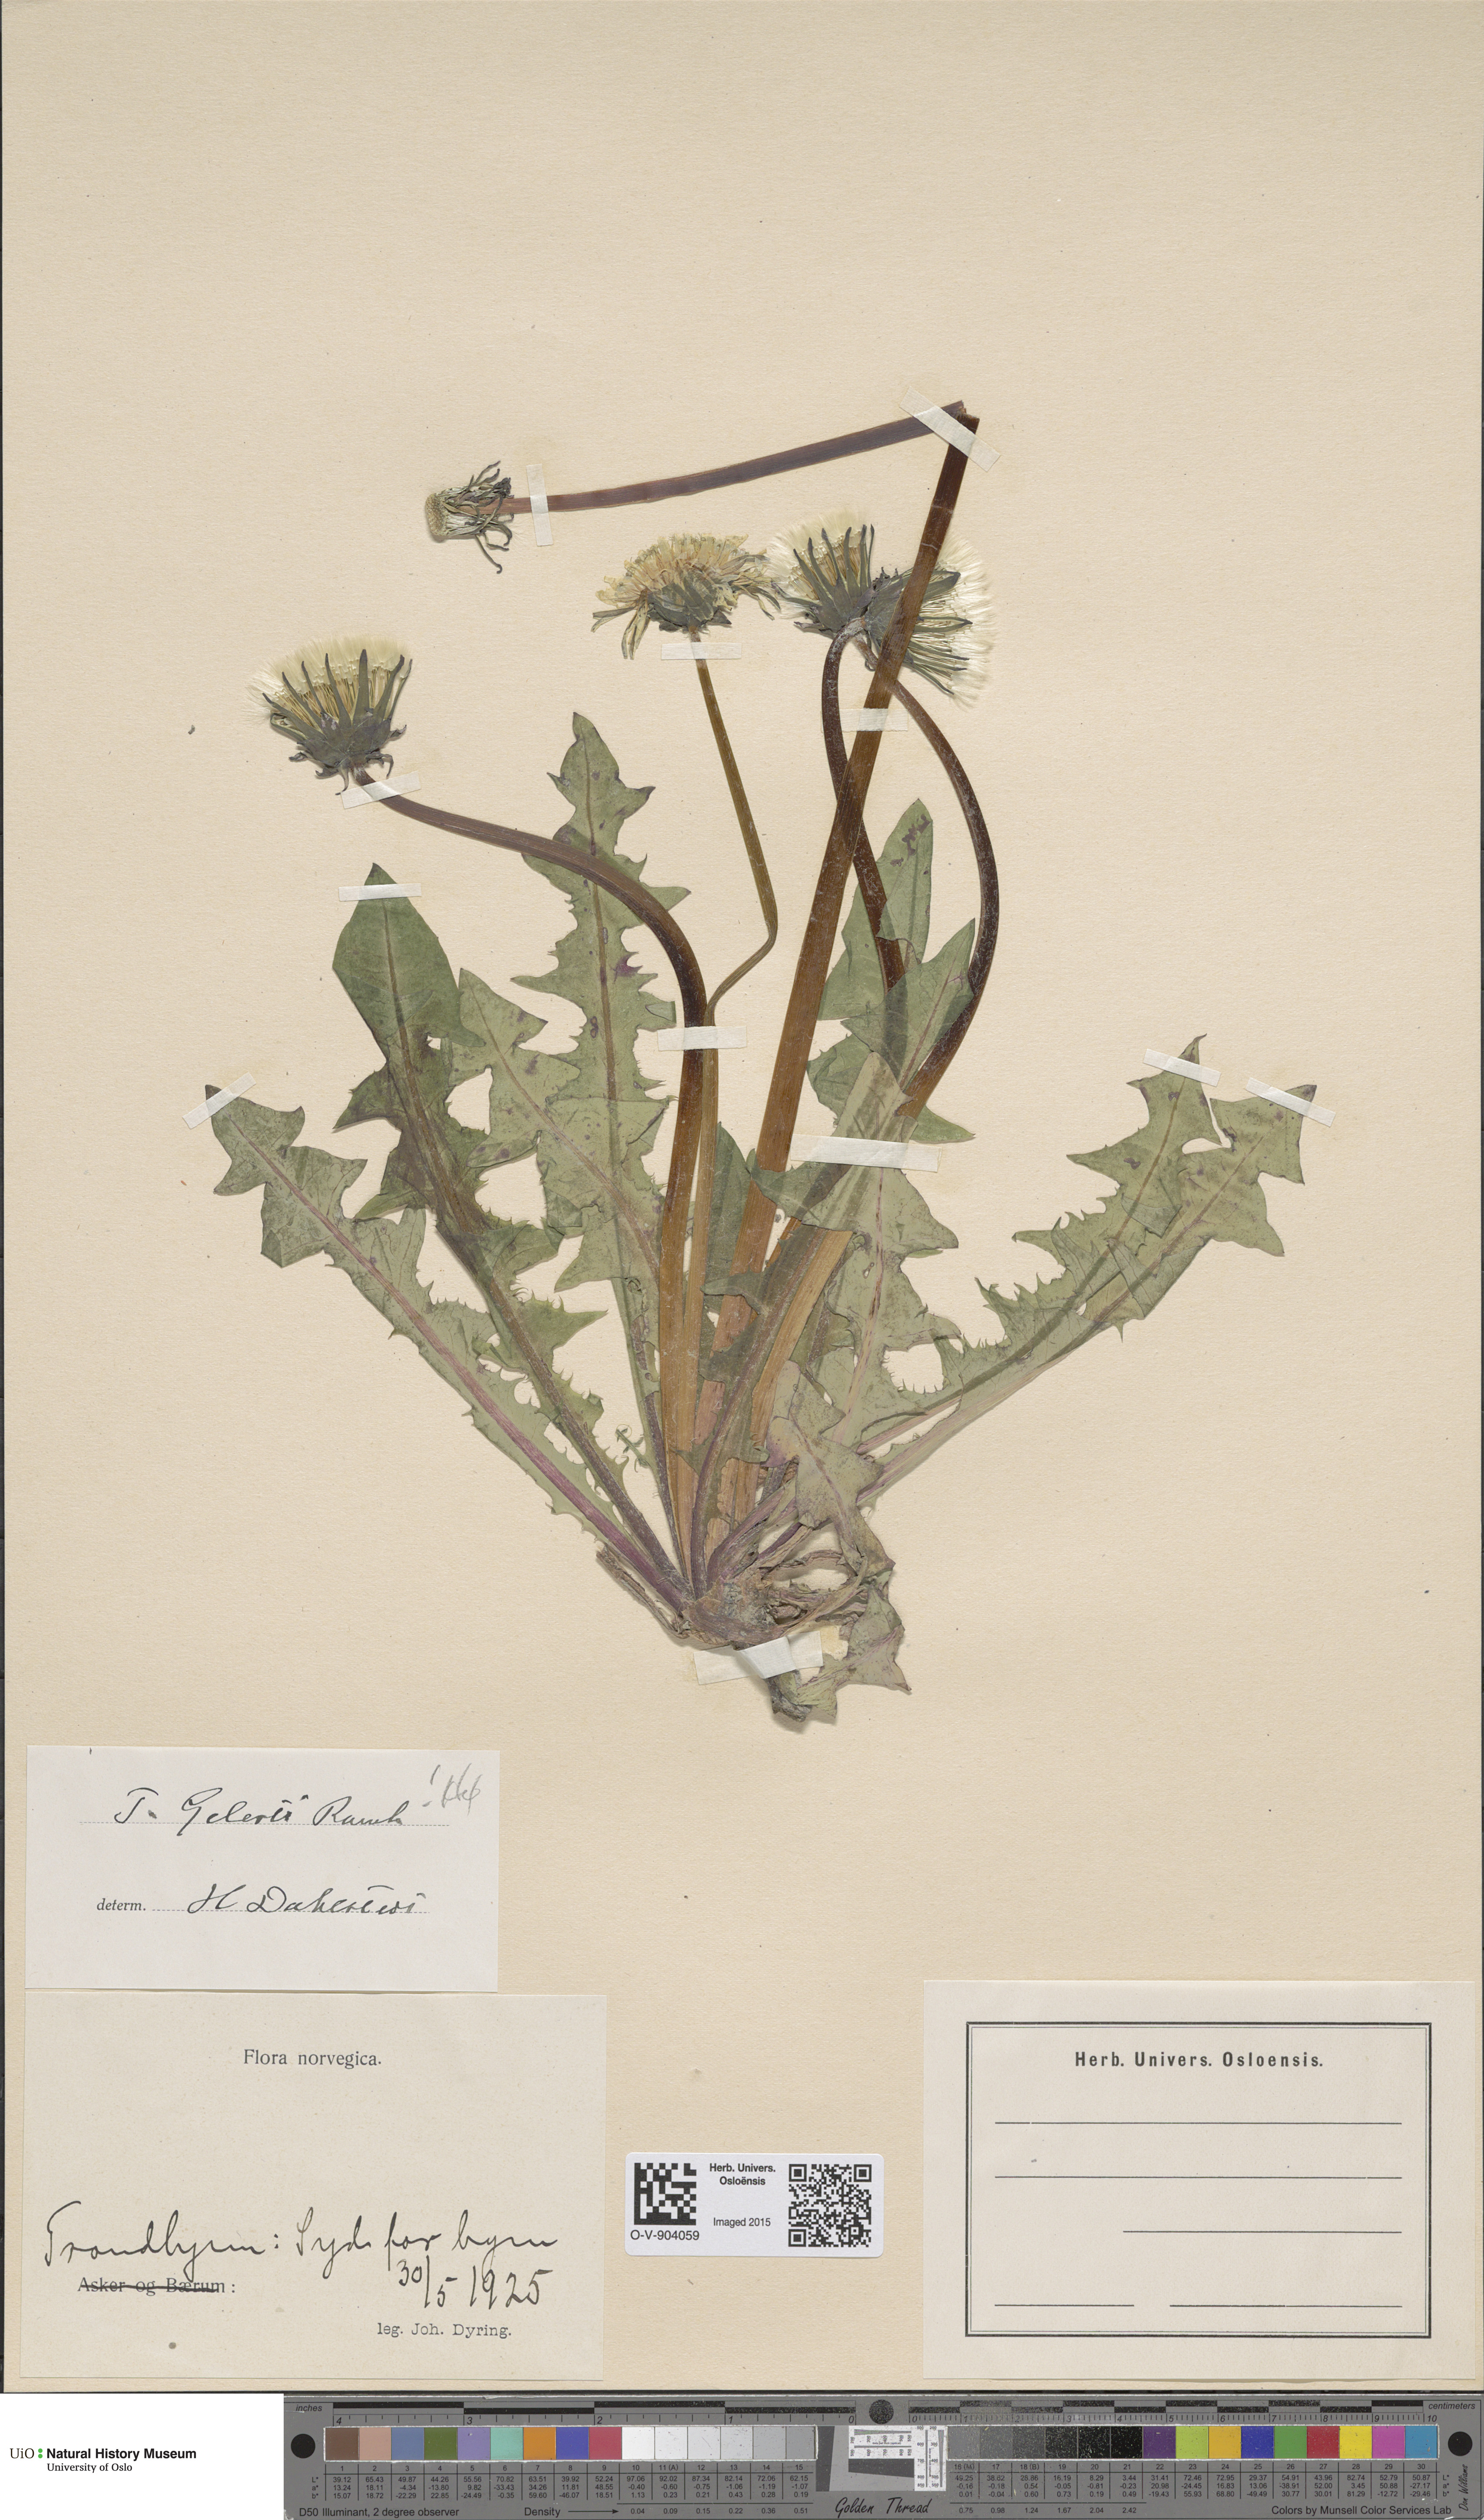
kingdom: Plantae
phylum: Tracheophyta
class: Magnoliopsida
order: Asterales
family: Asteraceae
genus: Taraxacum
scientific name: Taraxacum gelertii
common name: Gelert's dandelion
